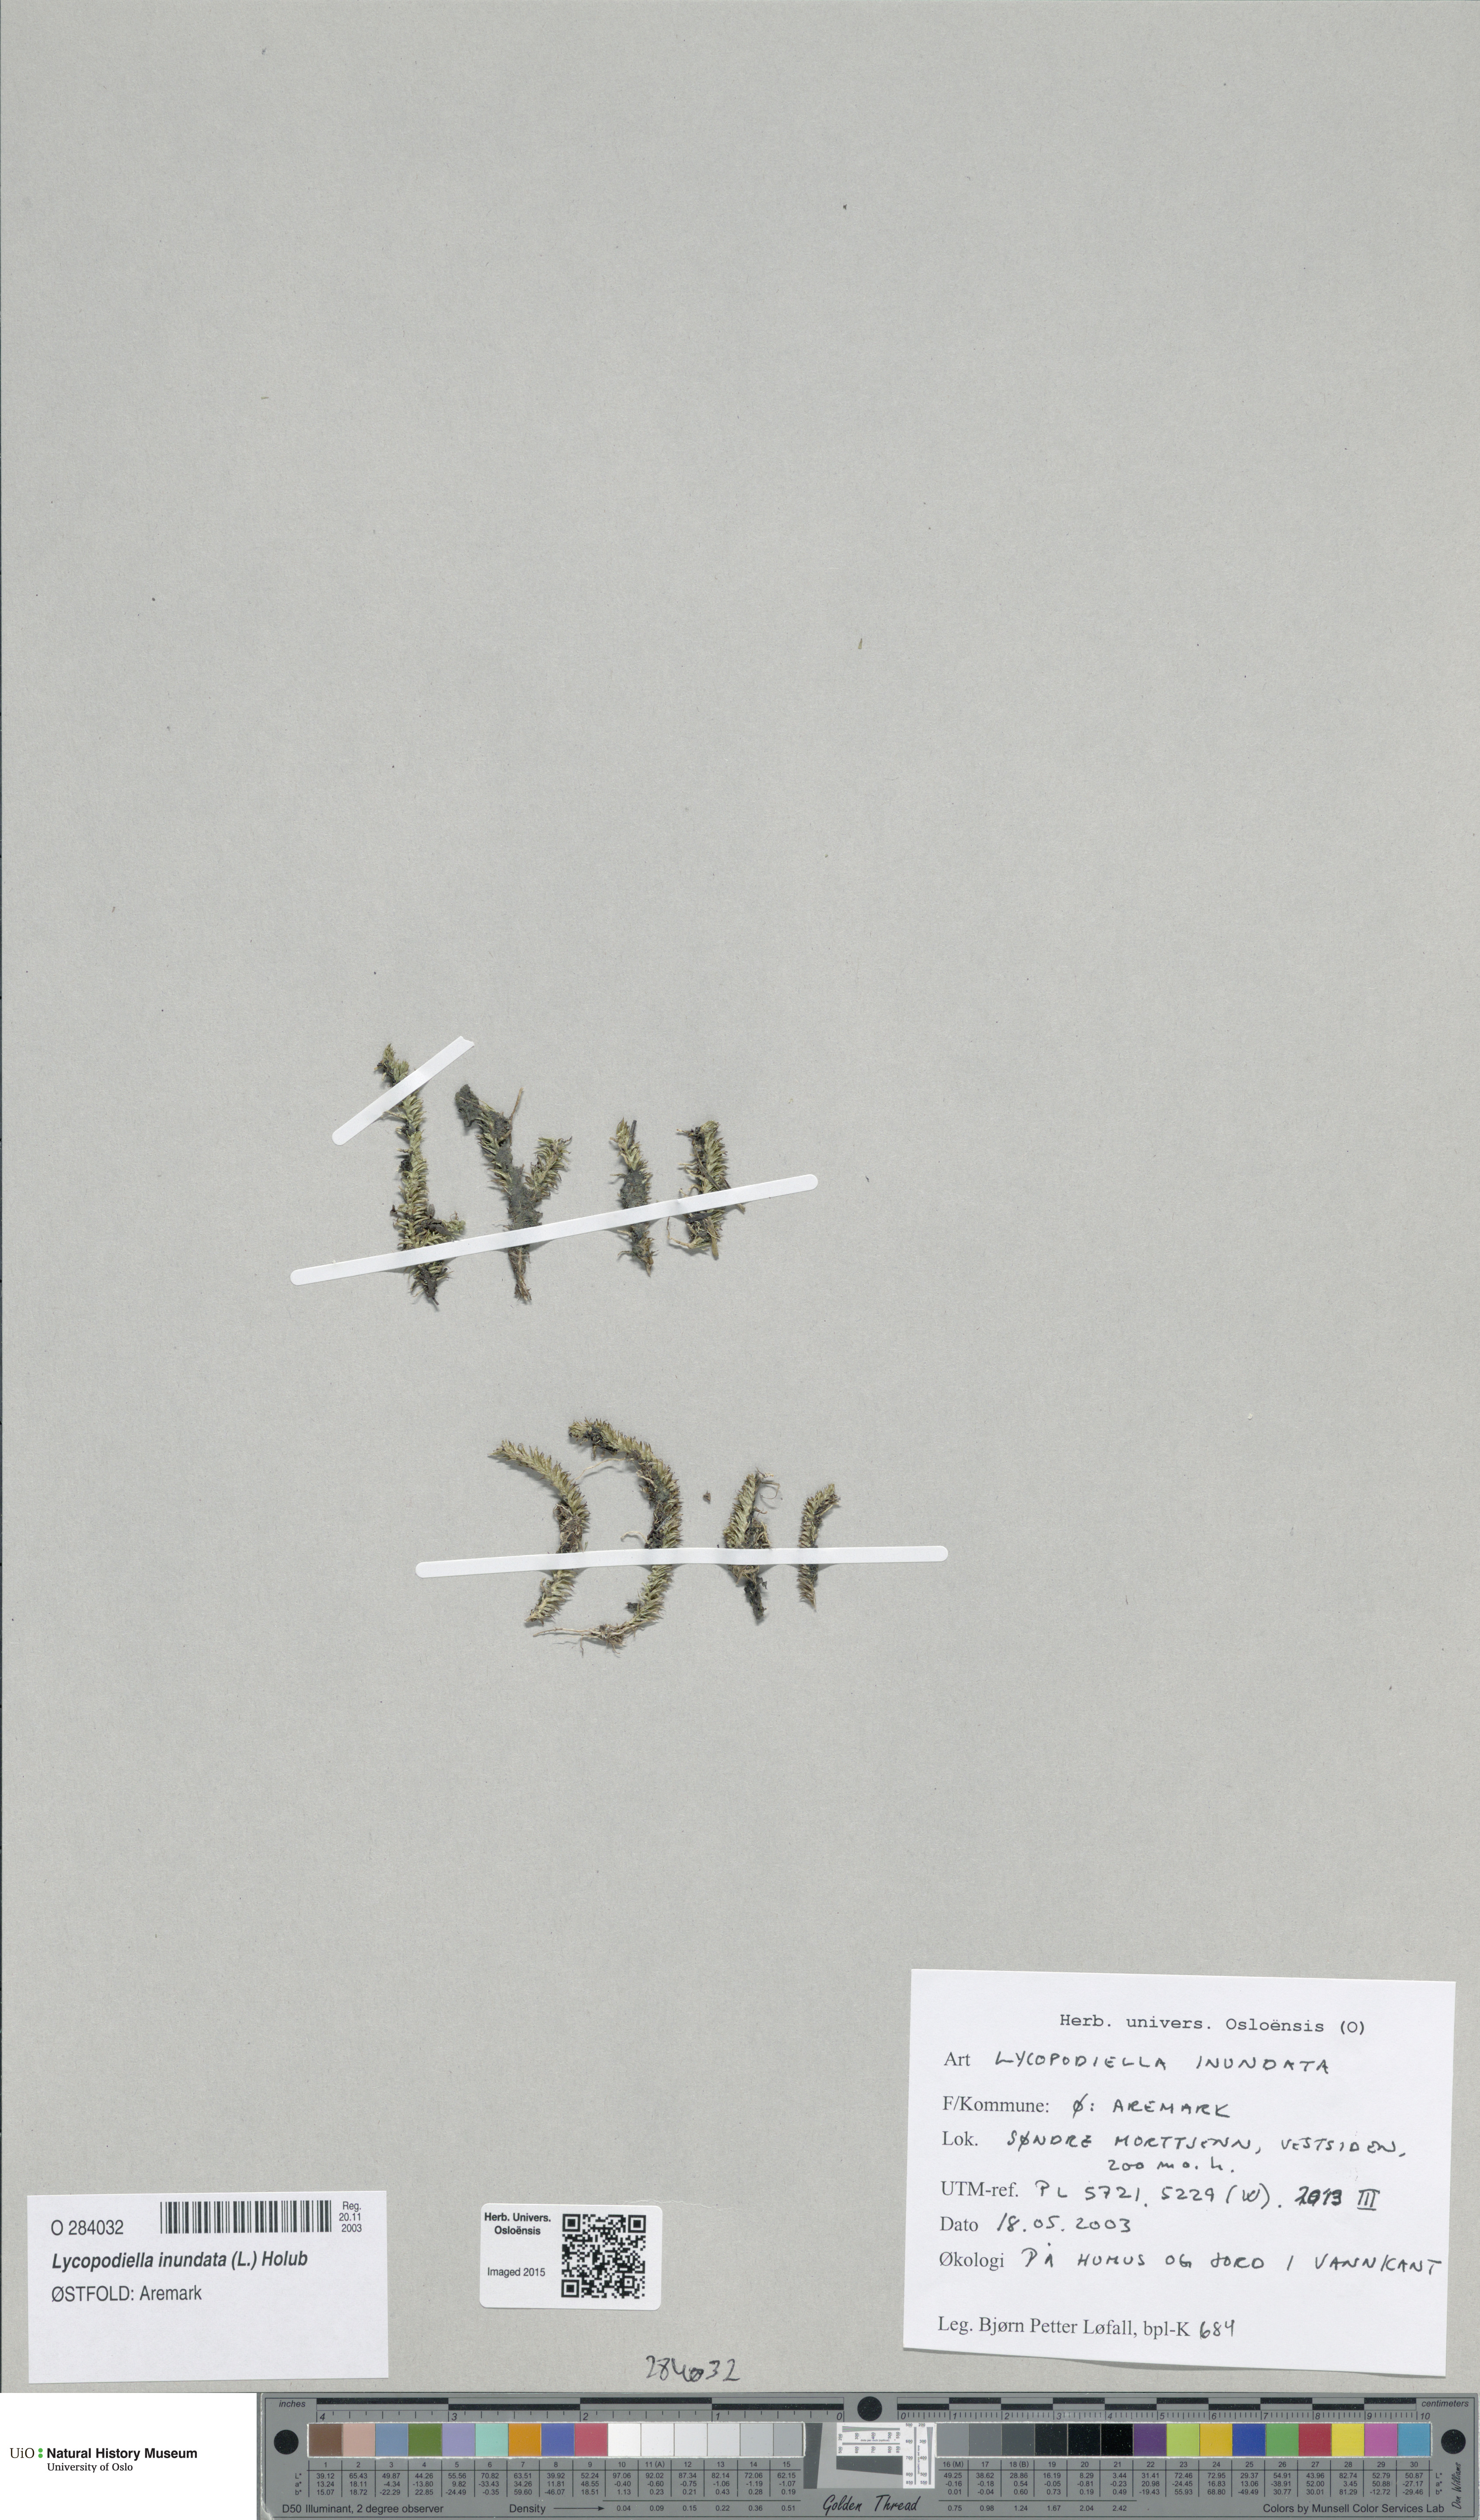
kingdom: Plantae
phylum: Tracheophyta
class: Lycopodiopsida
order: Lycopodiales
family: Lycopodiaceae
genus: Lycopodiella
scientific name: Lycopodiella inundata
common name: Marsh clubmoss
